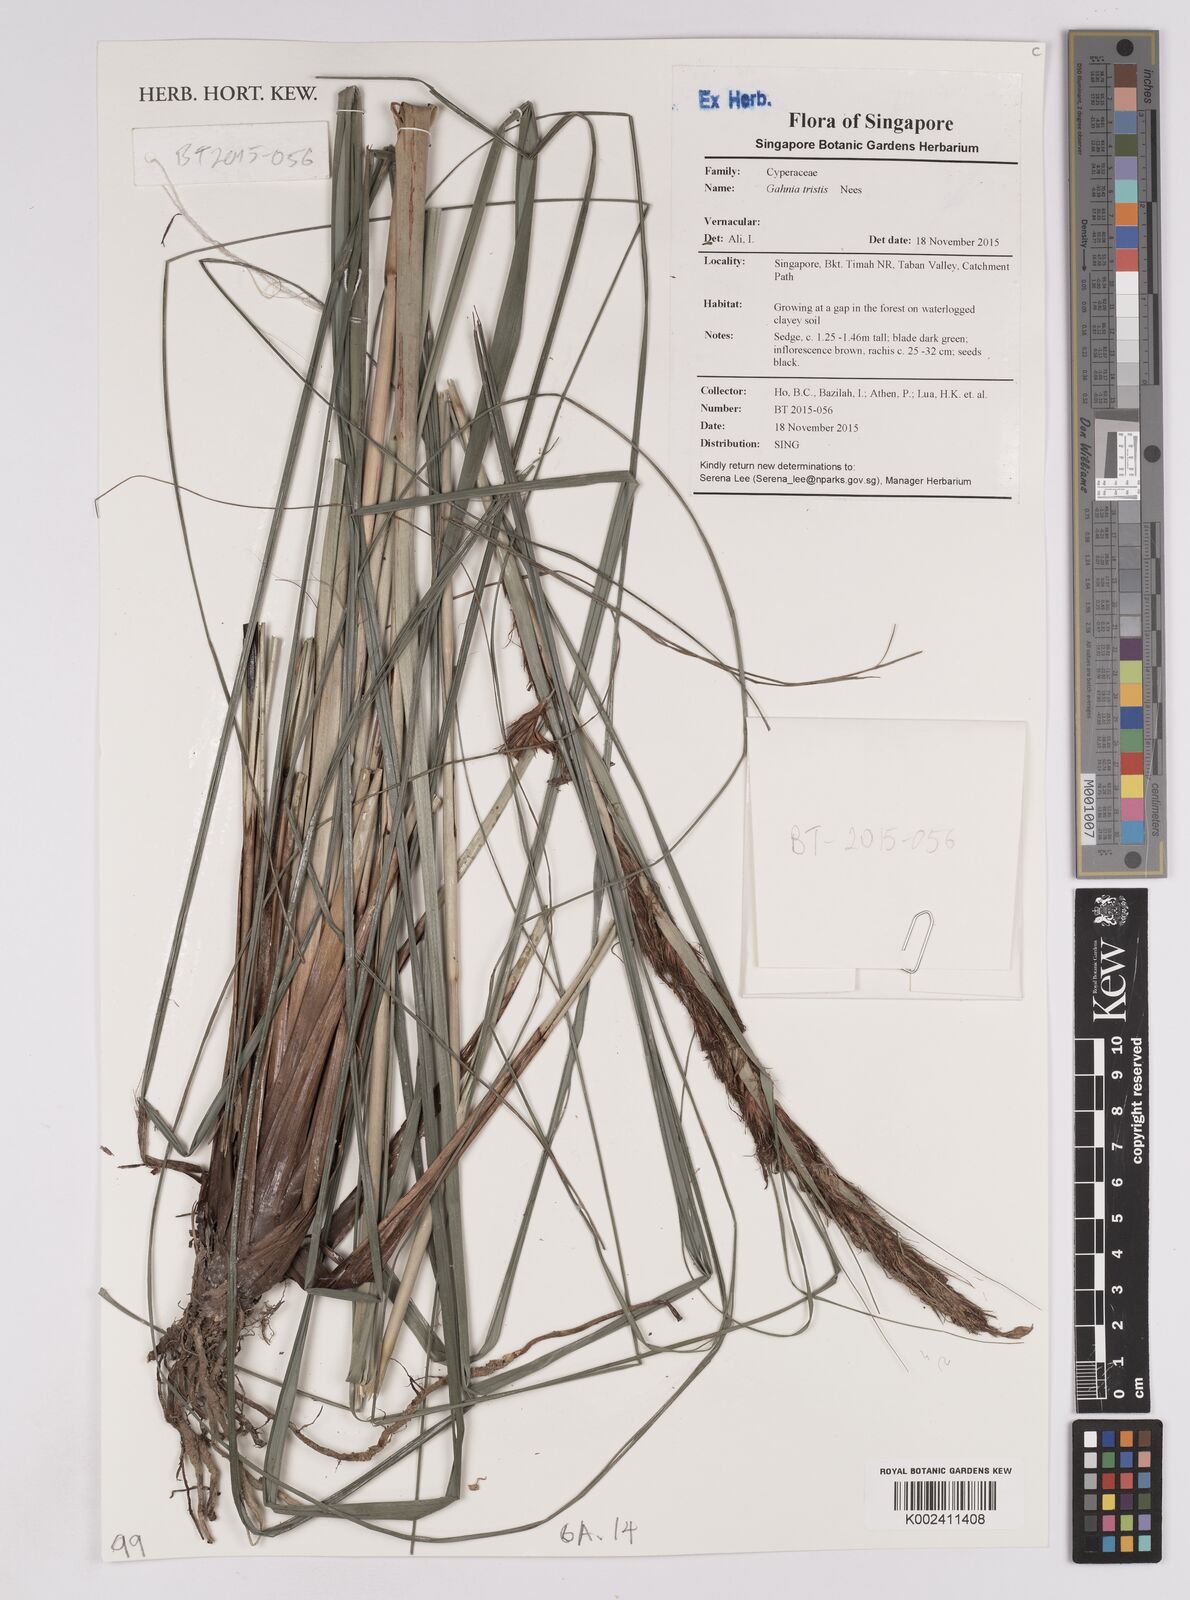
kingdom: Plantae
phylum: Tracheophyta
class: Liliopsida
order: Poales
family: Cyperaceae
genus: Gahnia
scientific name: Gahnia tristis
